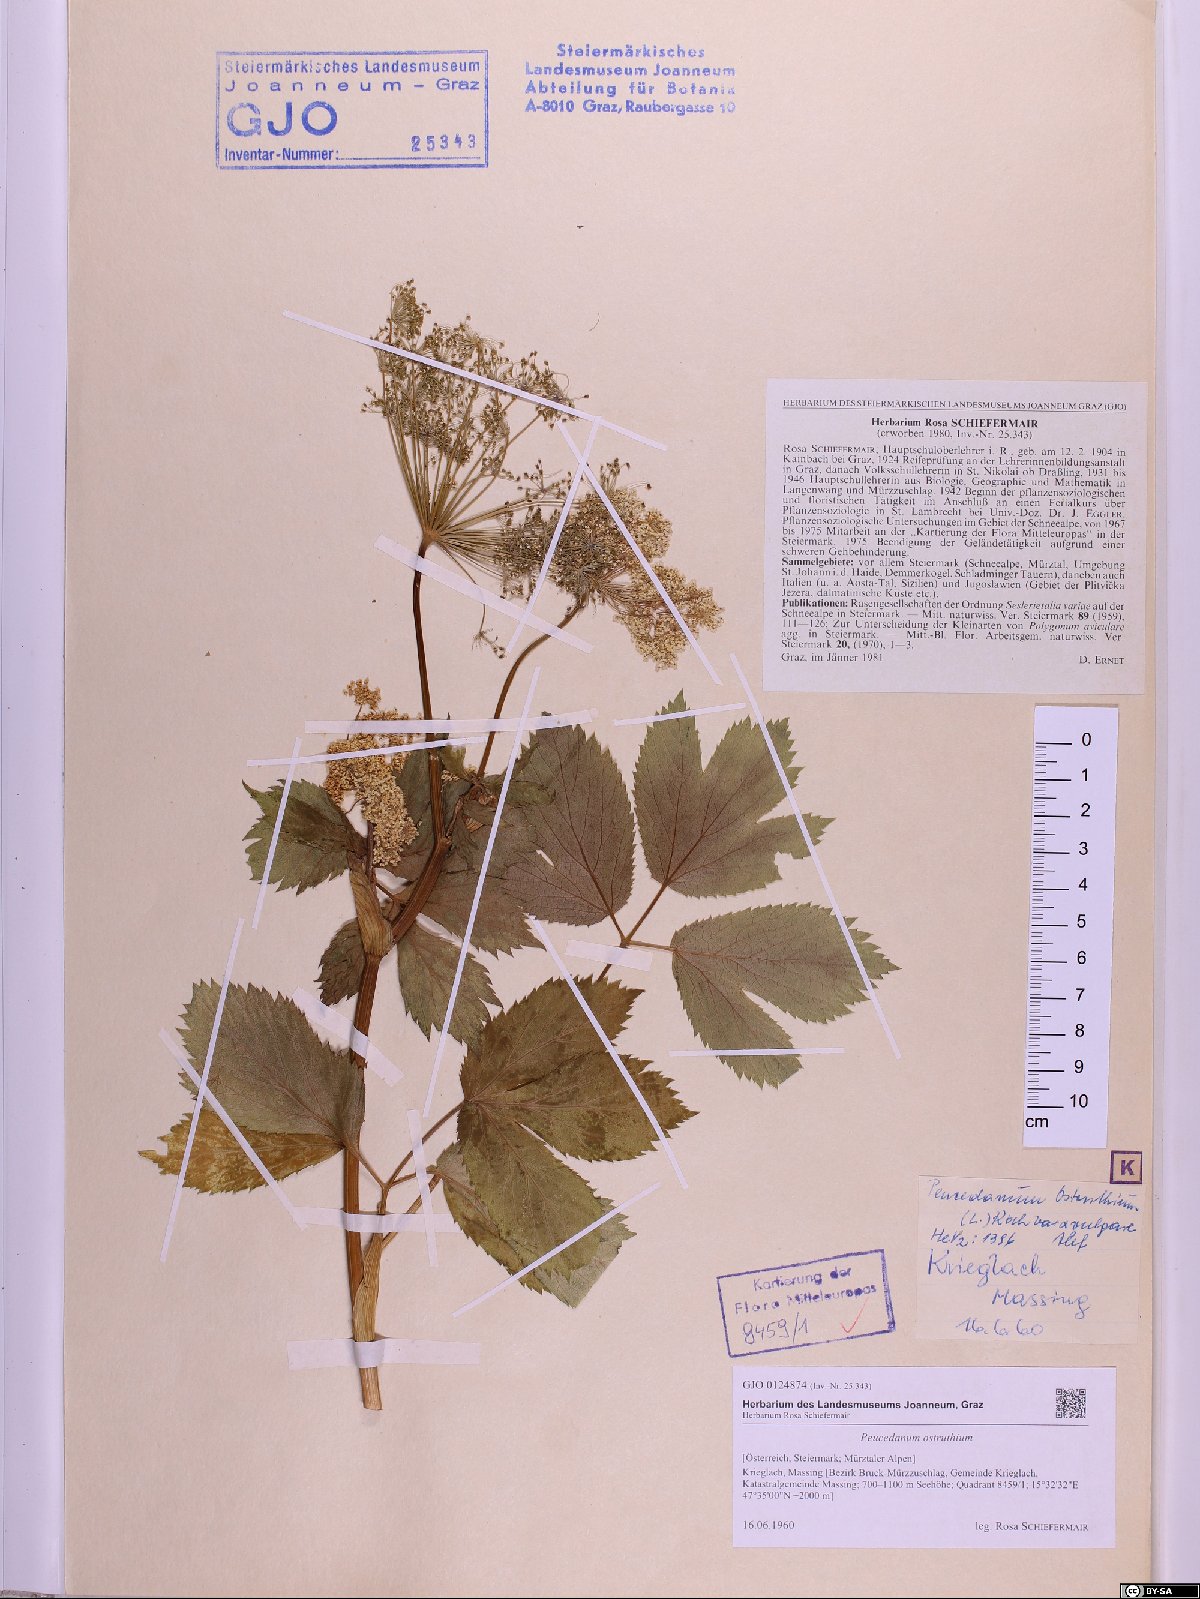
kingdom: Plantae
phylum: Tracheophyta
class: Magnoliopsida
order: Apiales
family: Apiaceae
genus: Imperatoria
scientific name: Imperatoria ostruthium
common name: Masterwort
